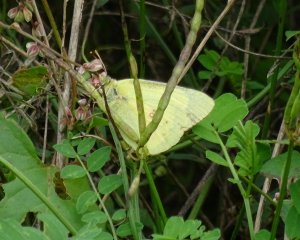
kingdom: Animalia
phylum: Arthropoda
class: Insecta
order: Lepidoptera
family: Pieridae
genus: Colias
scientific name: Colias philodice
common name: Clouded Sulphur
